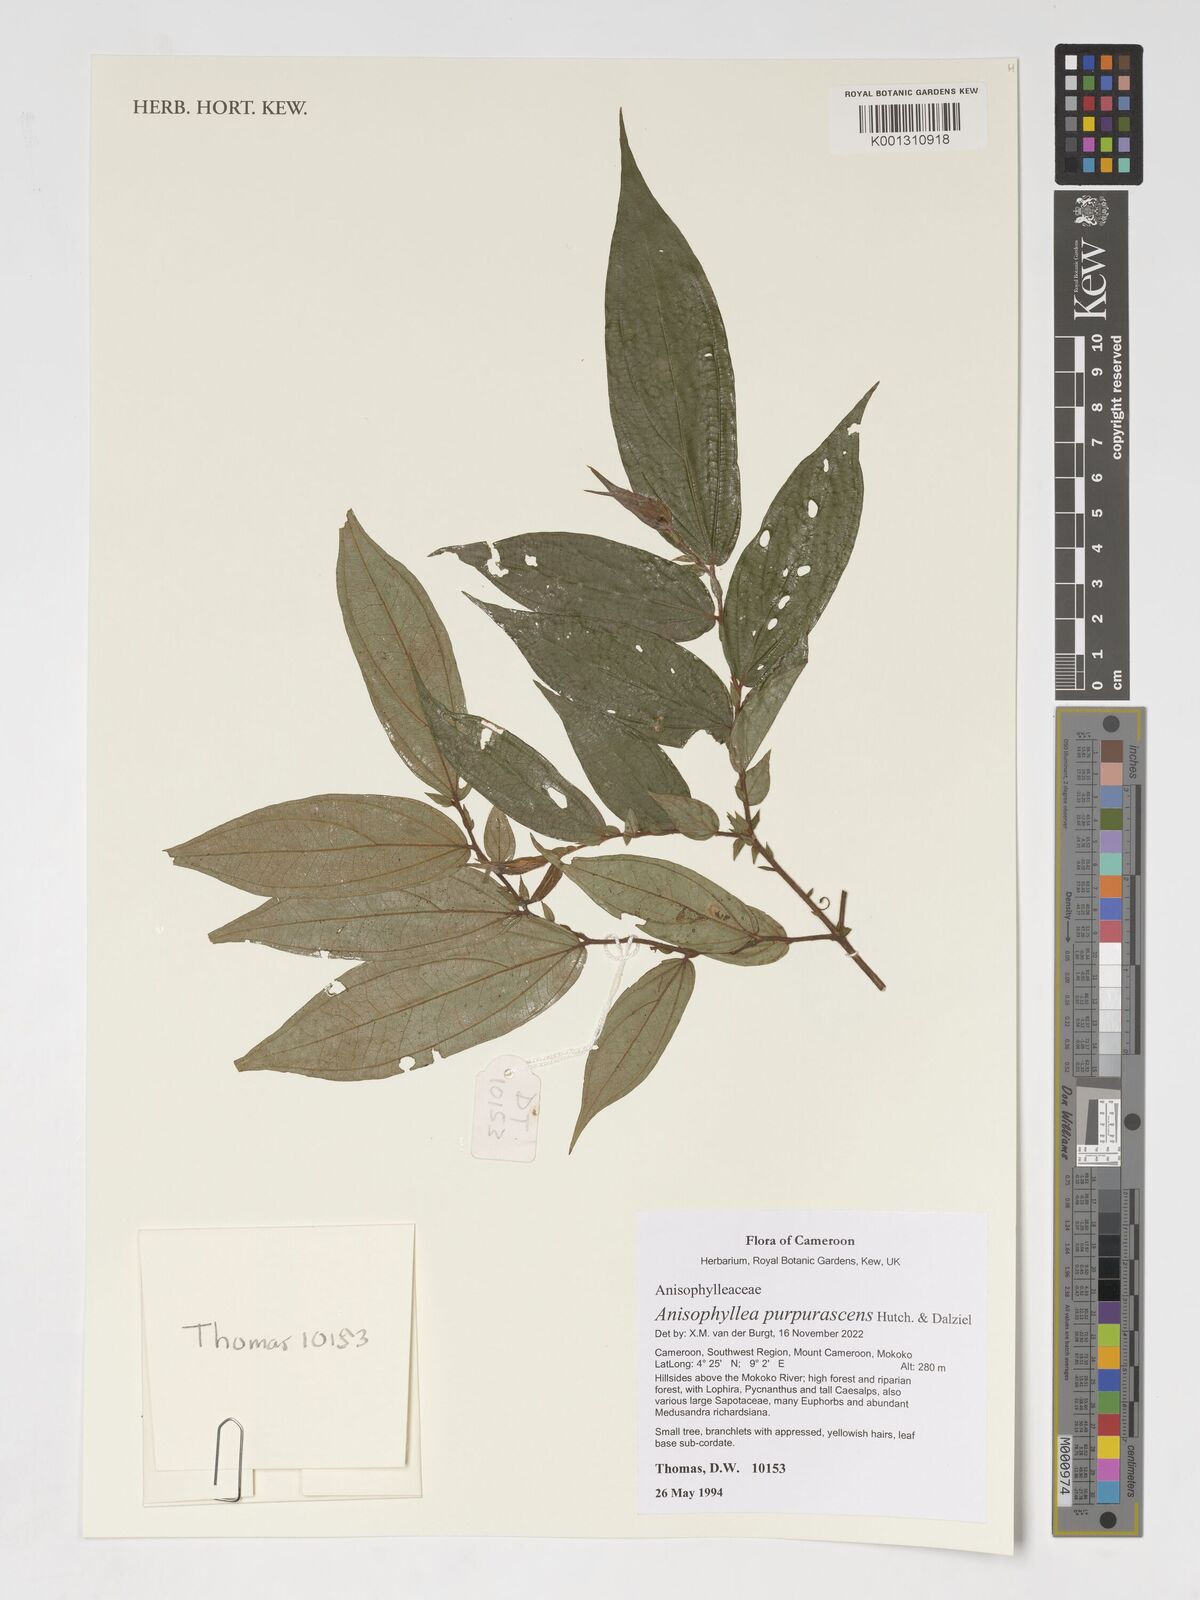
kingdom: Plantae
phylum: Tracheophyta
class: Magnoliopsida
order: Cucurbitales
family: Anisophylleaceae
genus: Anisophyllea
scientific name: Anisophyllea purpurascens
